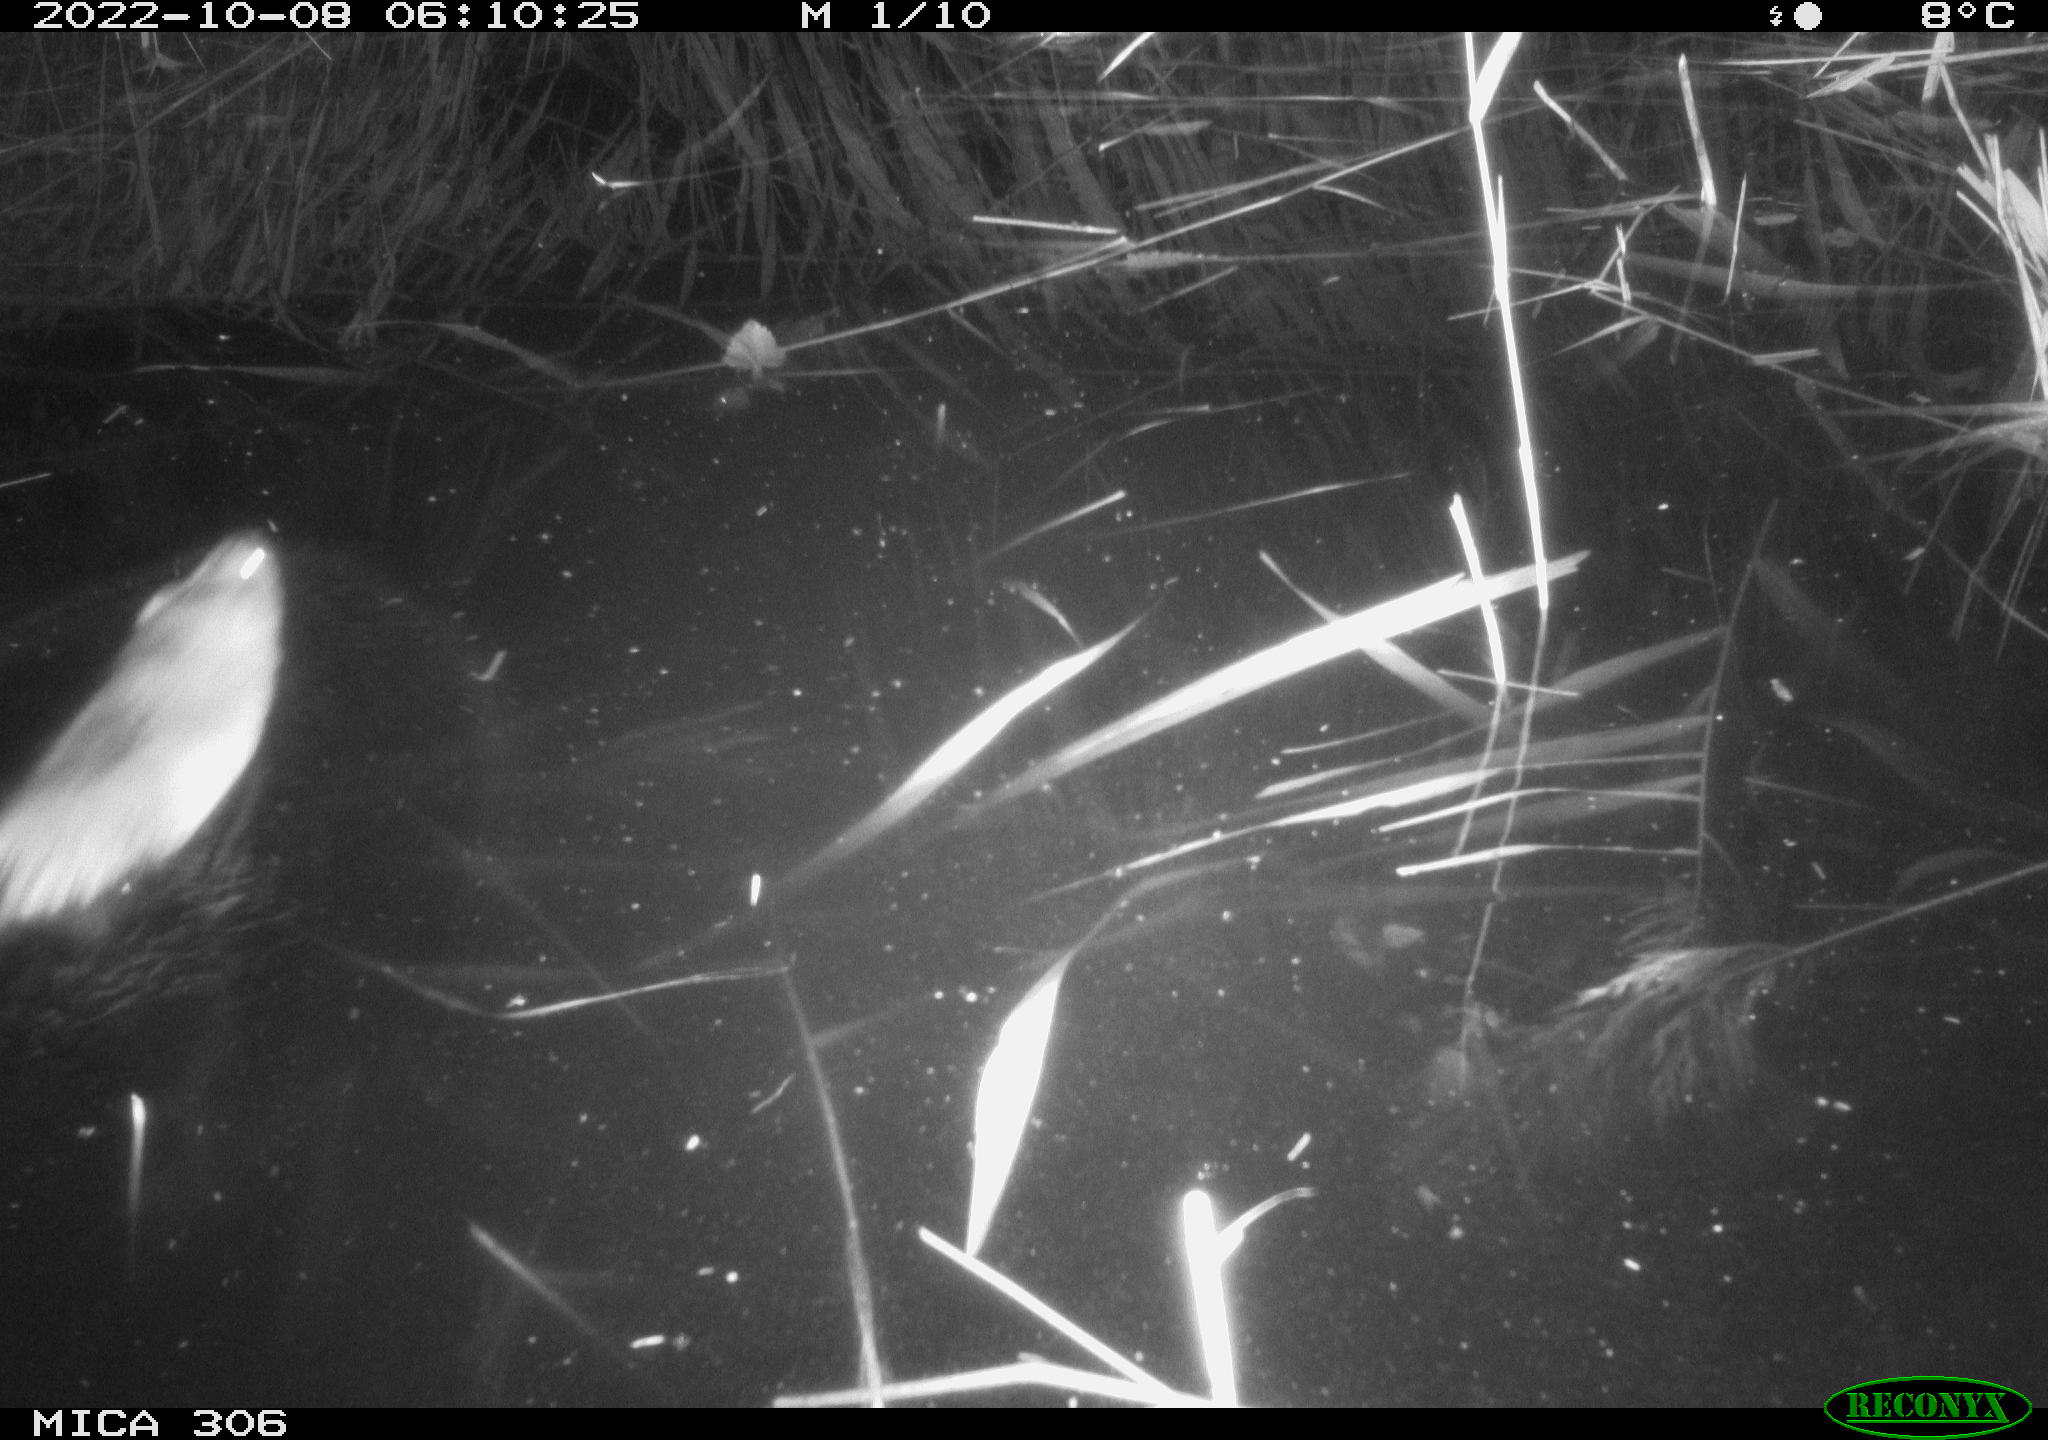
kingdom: Animalia
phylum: Chordata
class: Mammalia
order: Rodentia
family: Muridae
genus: Rattus
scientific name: Rattus norvegicus
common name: Brown rat
